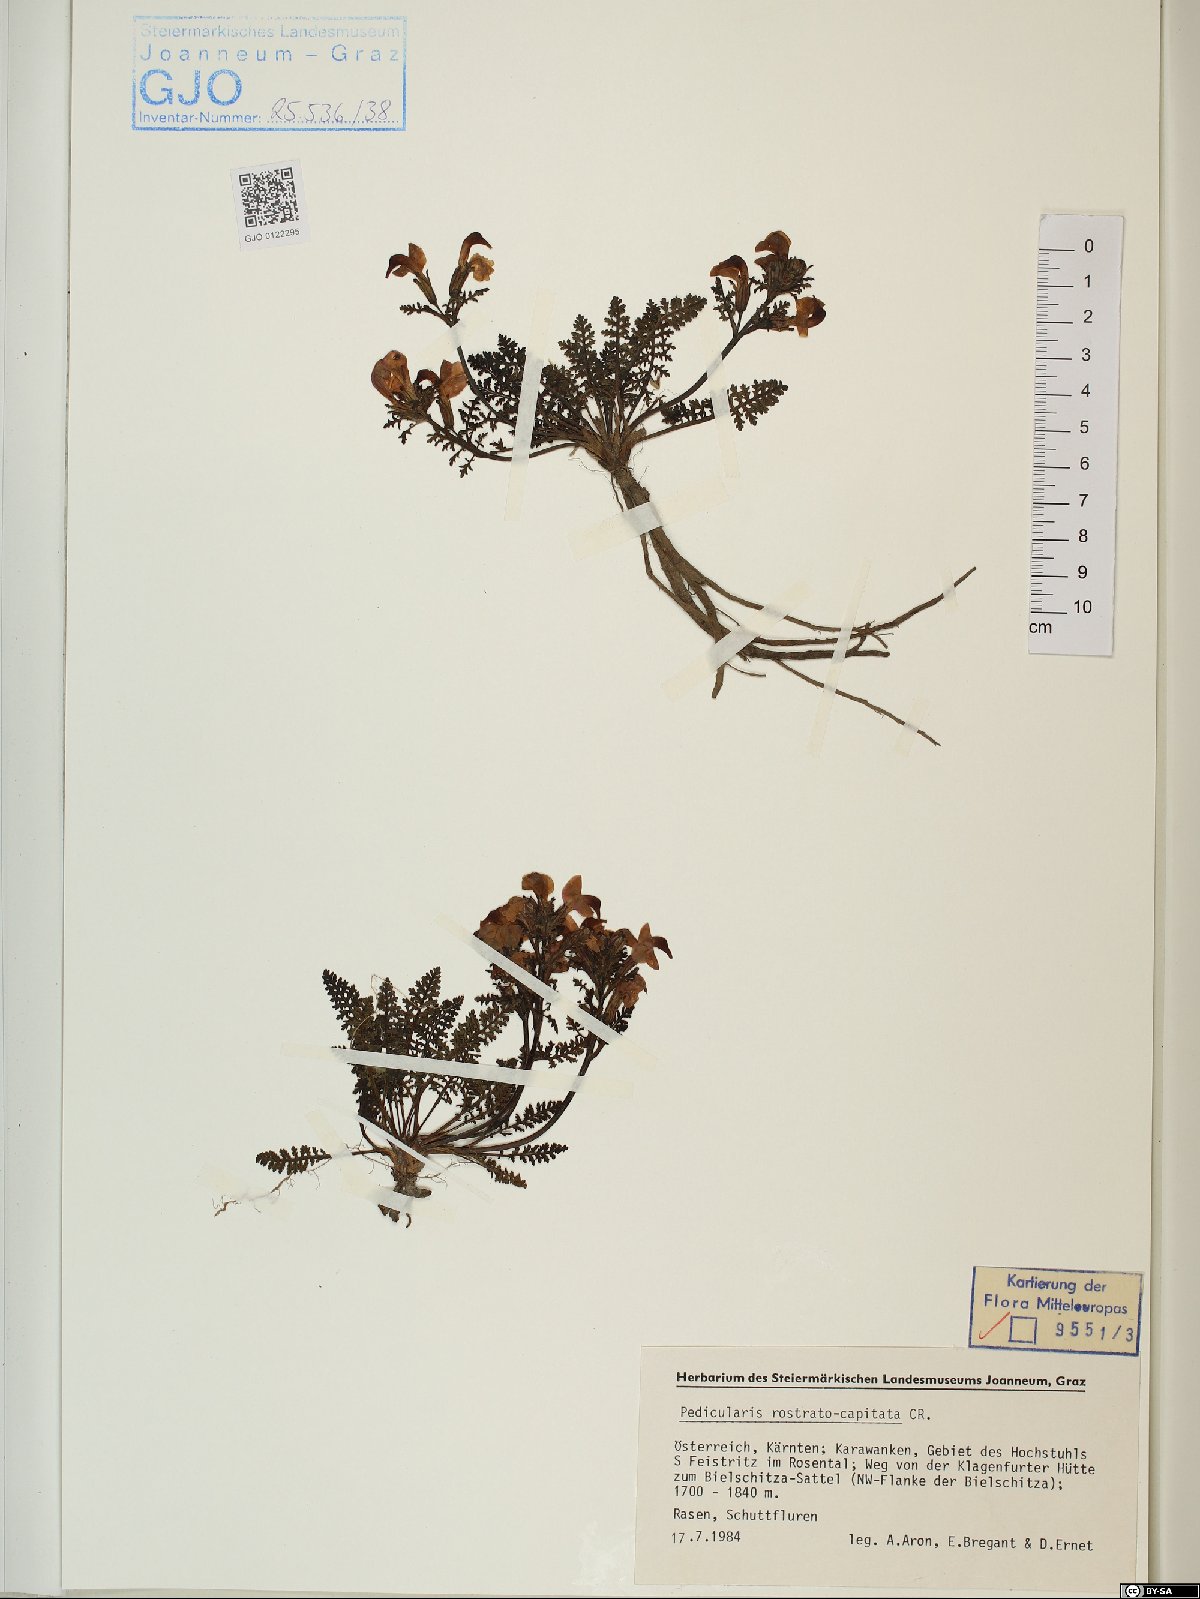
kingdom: Plantae
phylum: Tracheophyta
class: Magnoliopsida
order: Lamiales
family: Orobanchaceae
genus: Pedicularis
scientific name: Pedicularis rostratocapitata
